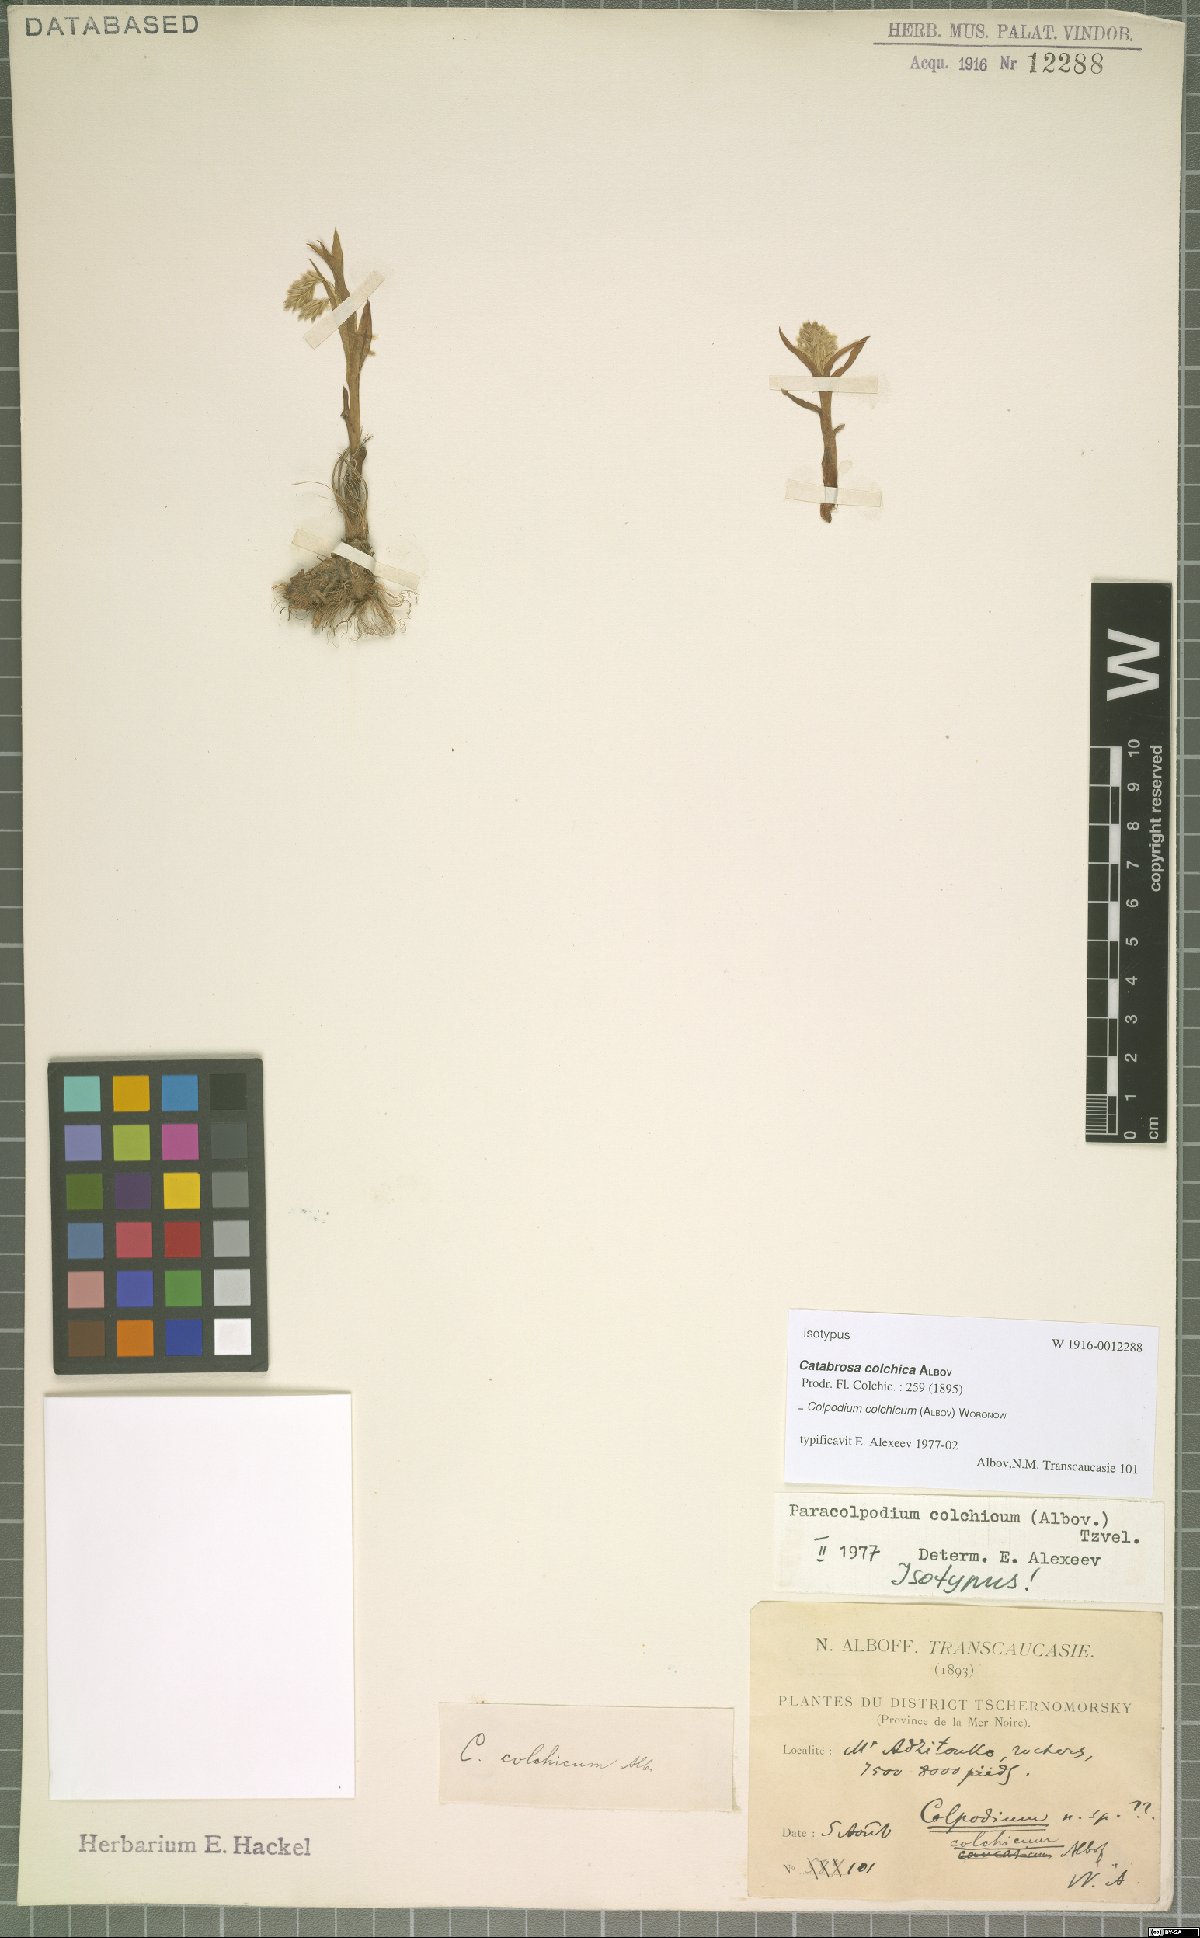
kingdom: Plantae
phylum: Tracheophyta
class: Liliopsida
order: Poales
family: Poaceae
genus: Paracolpodium
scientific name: Paracolpodium colchicum
